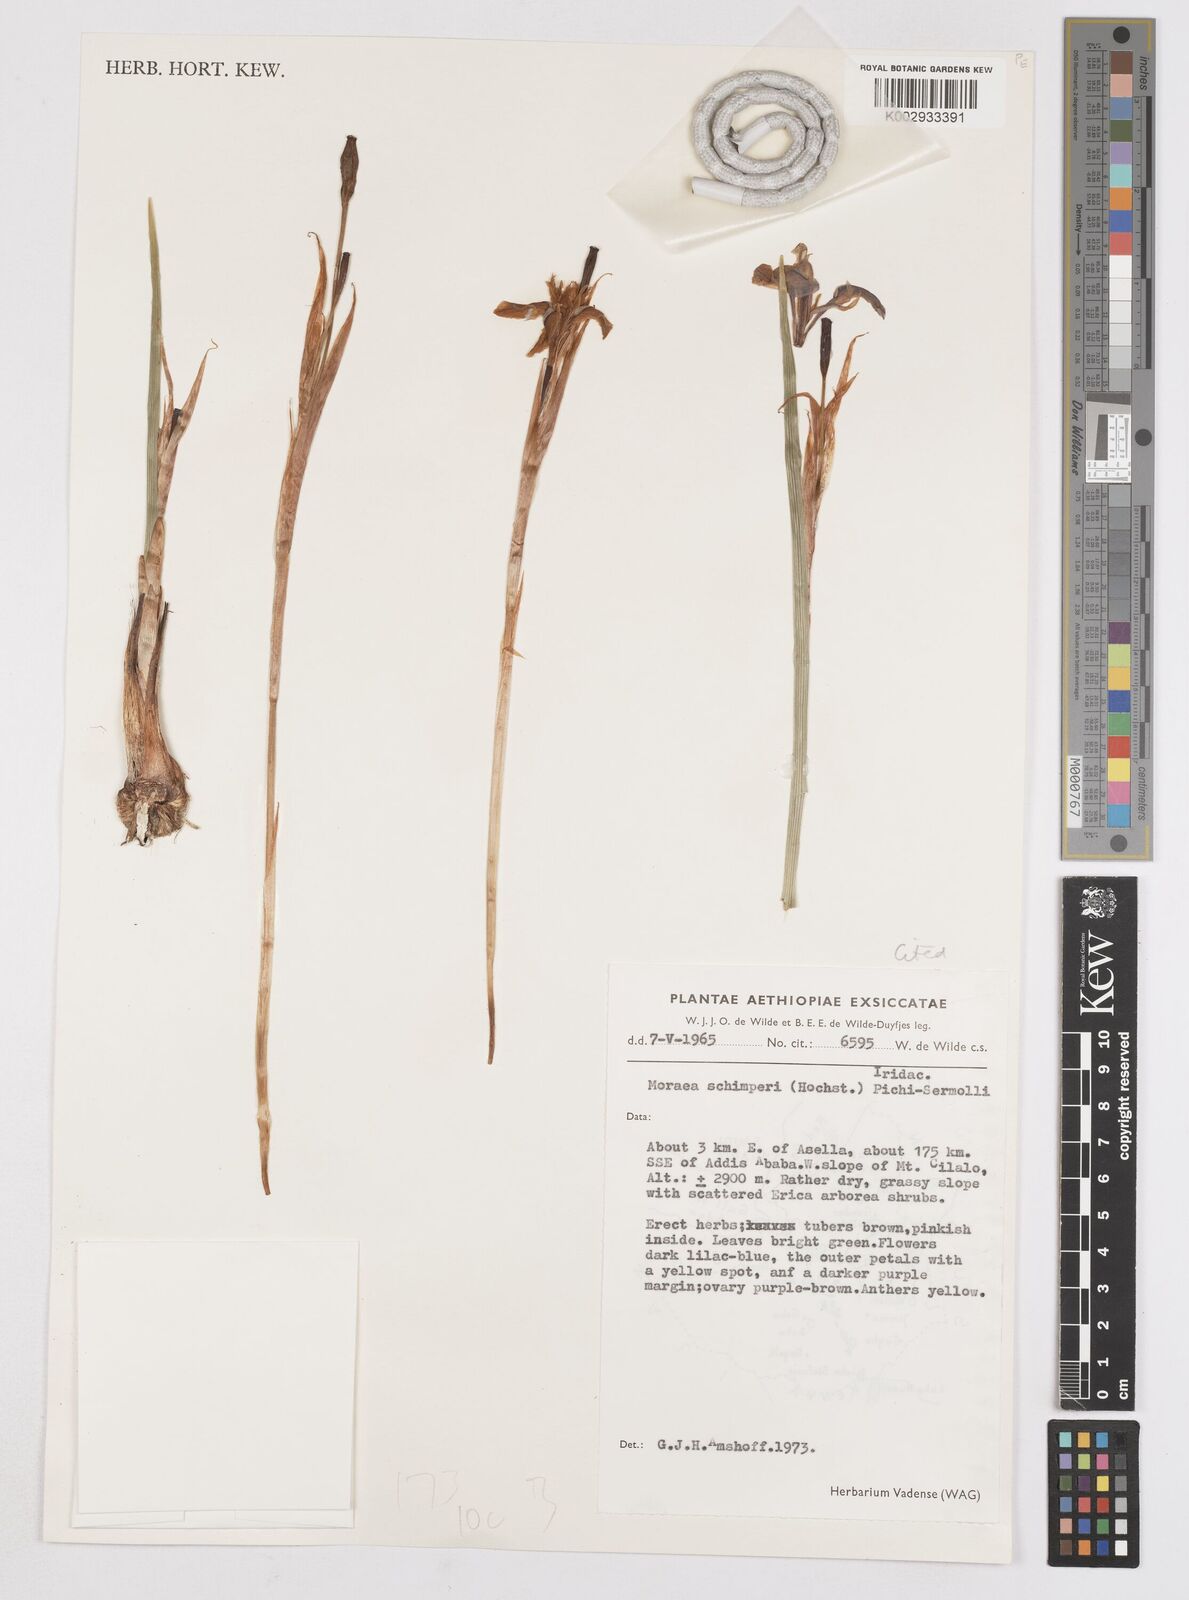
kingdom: Plantae
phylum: Tracheophyta
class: Liliopsida
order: Asparagales
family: Iridaceae
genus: Moraea
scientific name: Moraea schimperi
